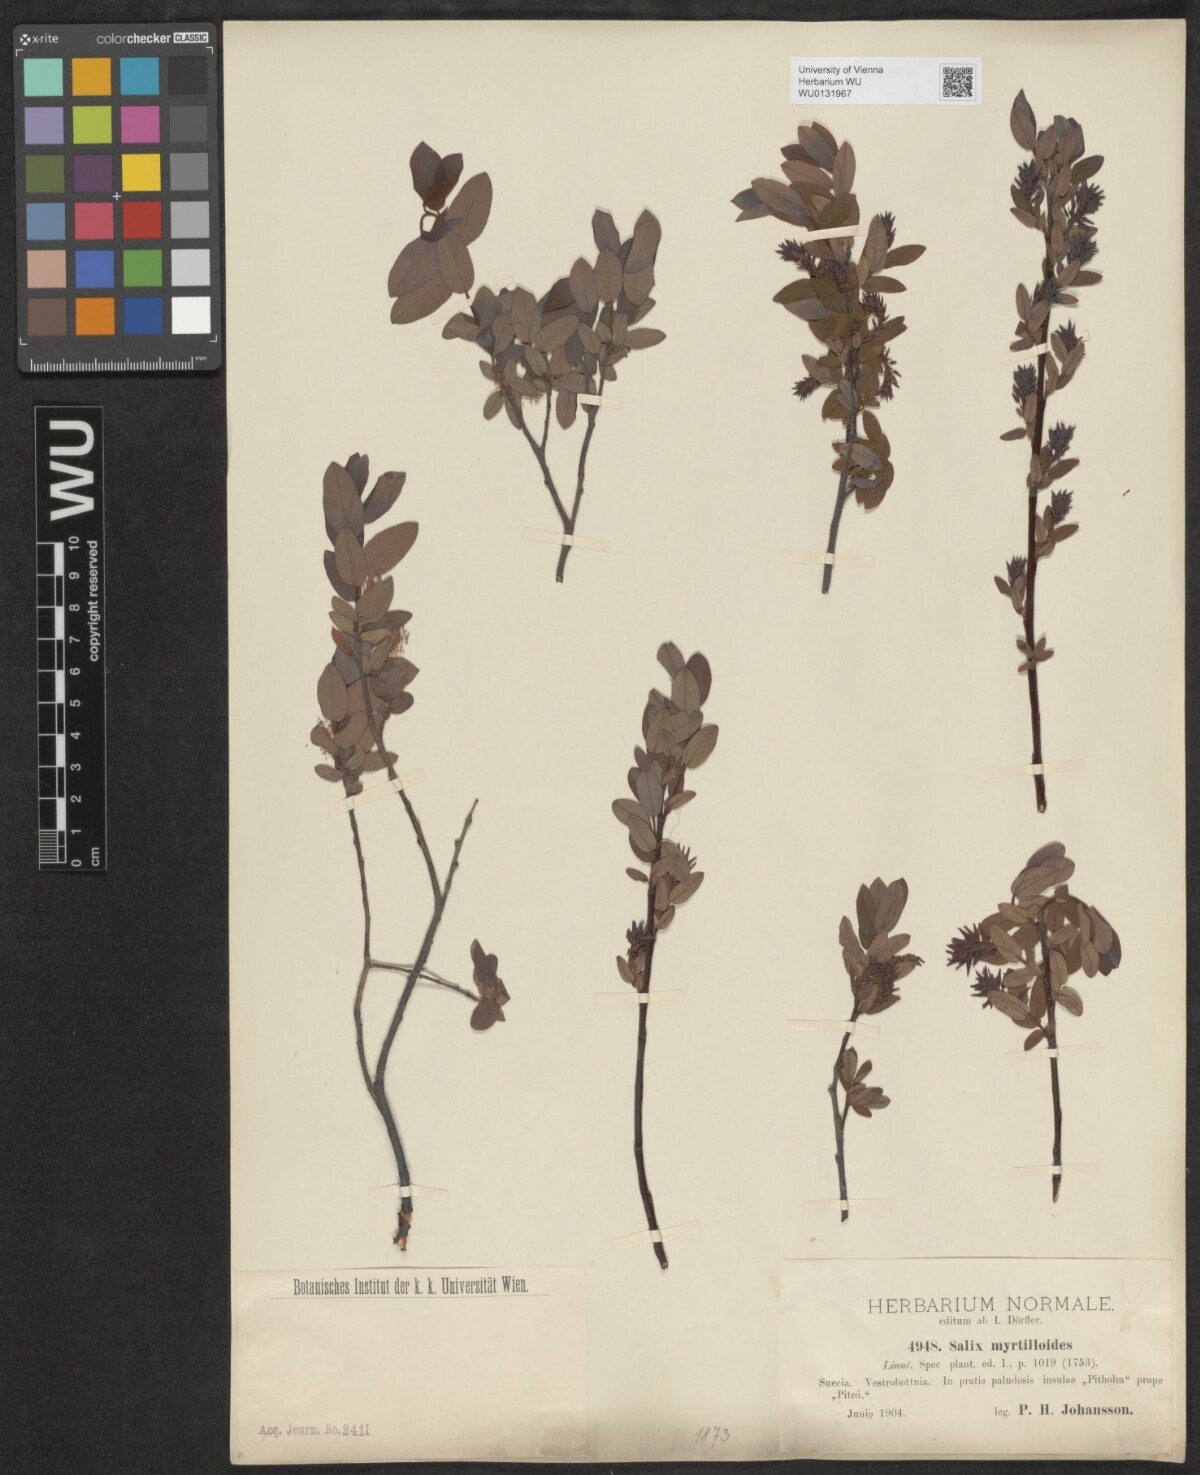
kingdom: Plantae
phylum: Tracheophyta
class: Magnoliopsida
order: Malpighiales
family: Salicaceae
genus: Salix
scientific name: Salix myrtilloides
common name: Myrtle-leaved willow
